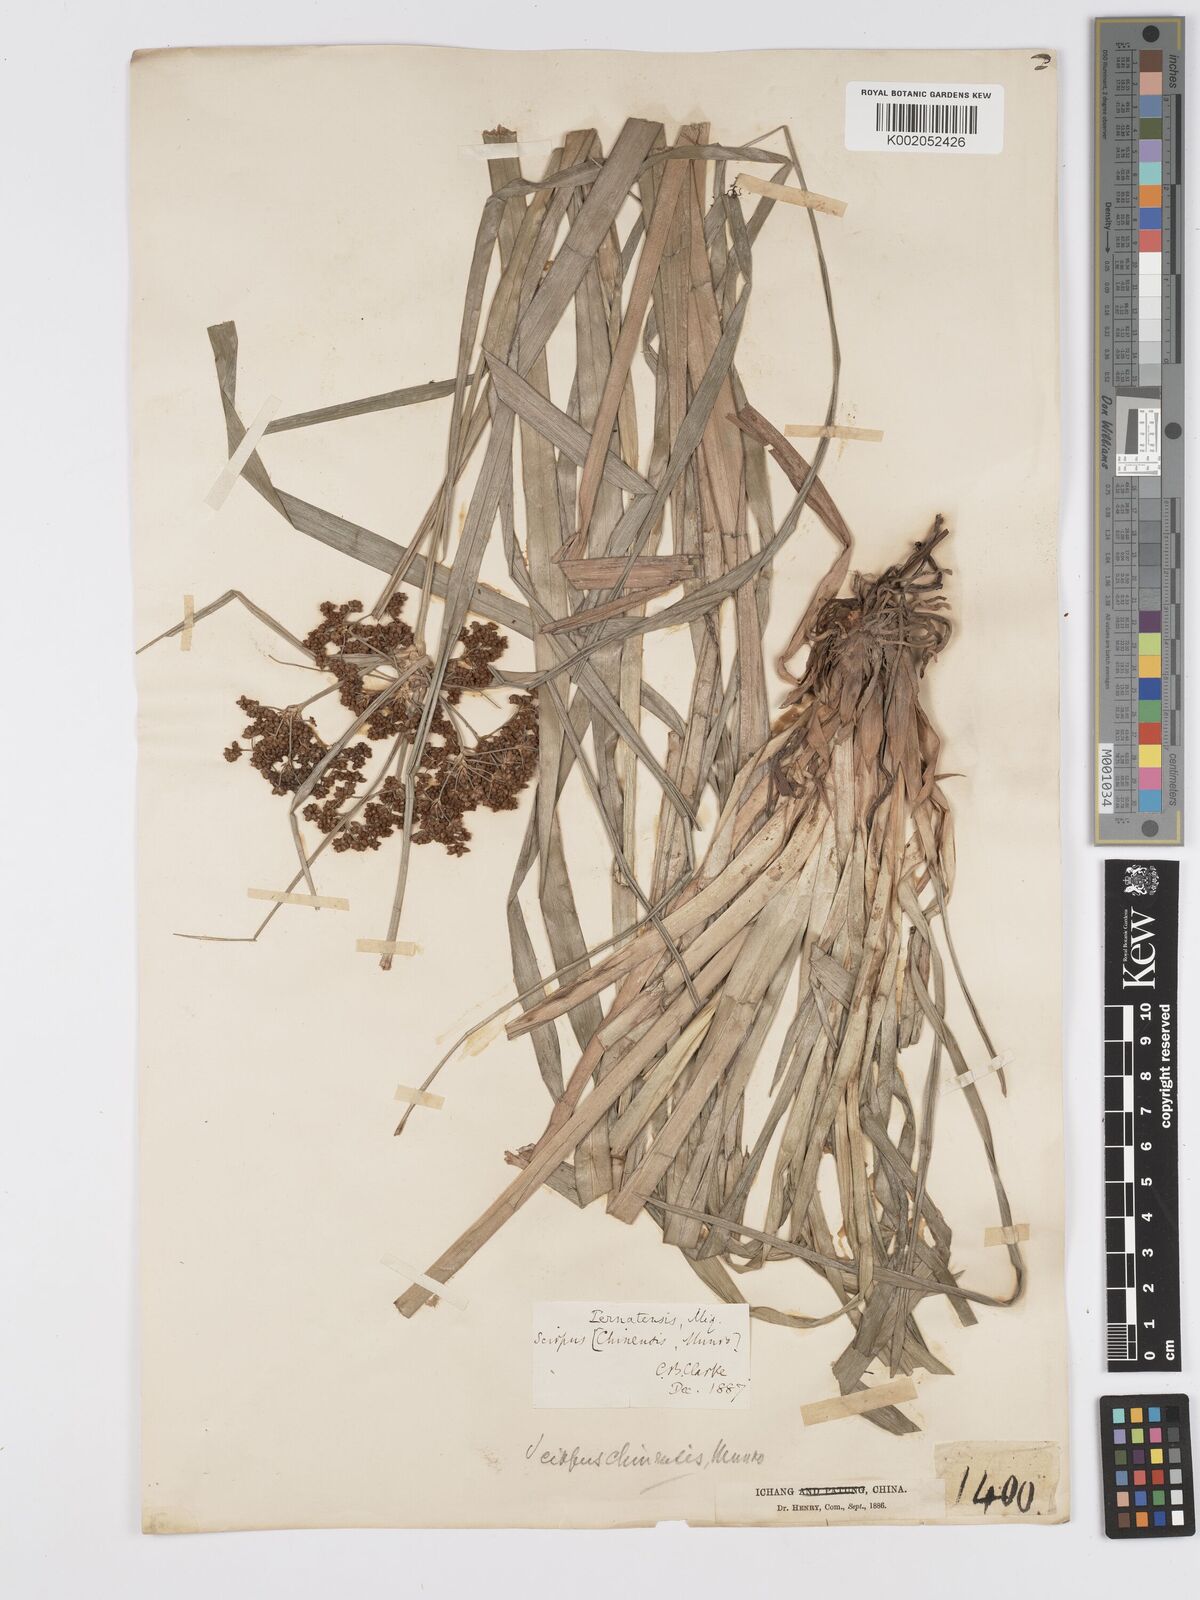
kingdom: Plantae
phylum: Tracheophyta
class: Liliopsida
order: Poales
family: Cyperaceae
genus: Scirpus
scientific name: Scirpus ternatanus
